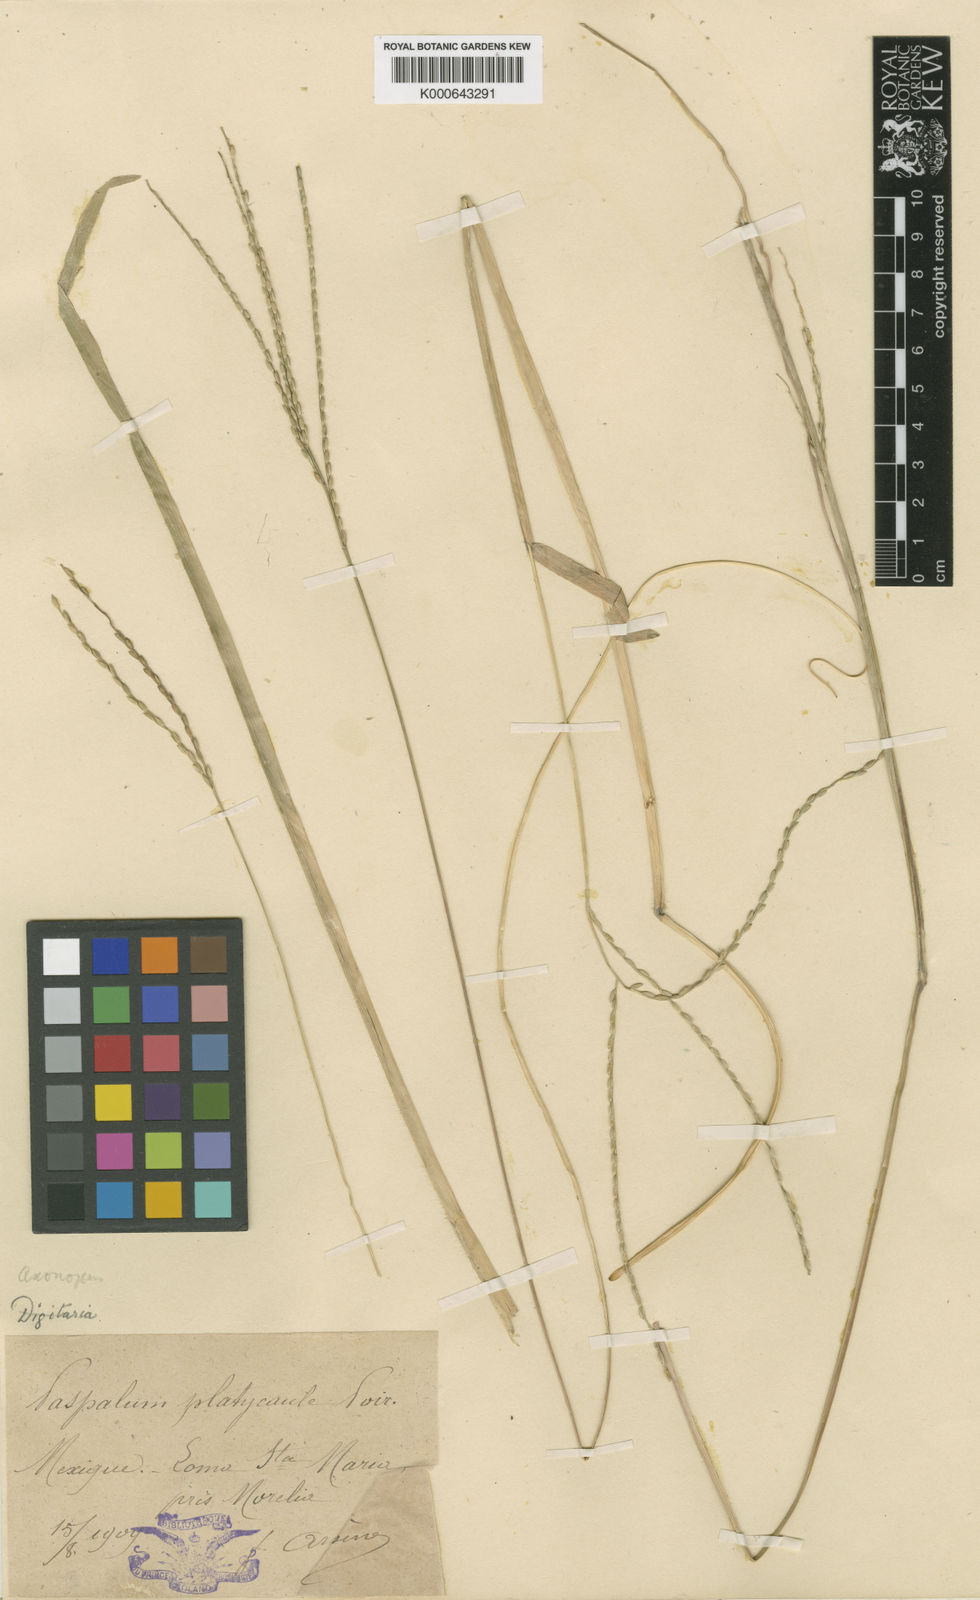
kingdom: Plantae
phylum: Tracheophyta
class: Liliopsida
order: Poales
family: Poaceae
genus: Axonopus
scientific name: Axonopus compressus
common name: American carpet grass
